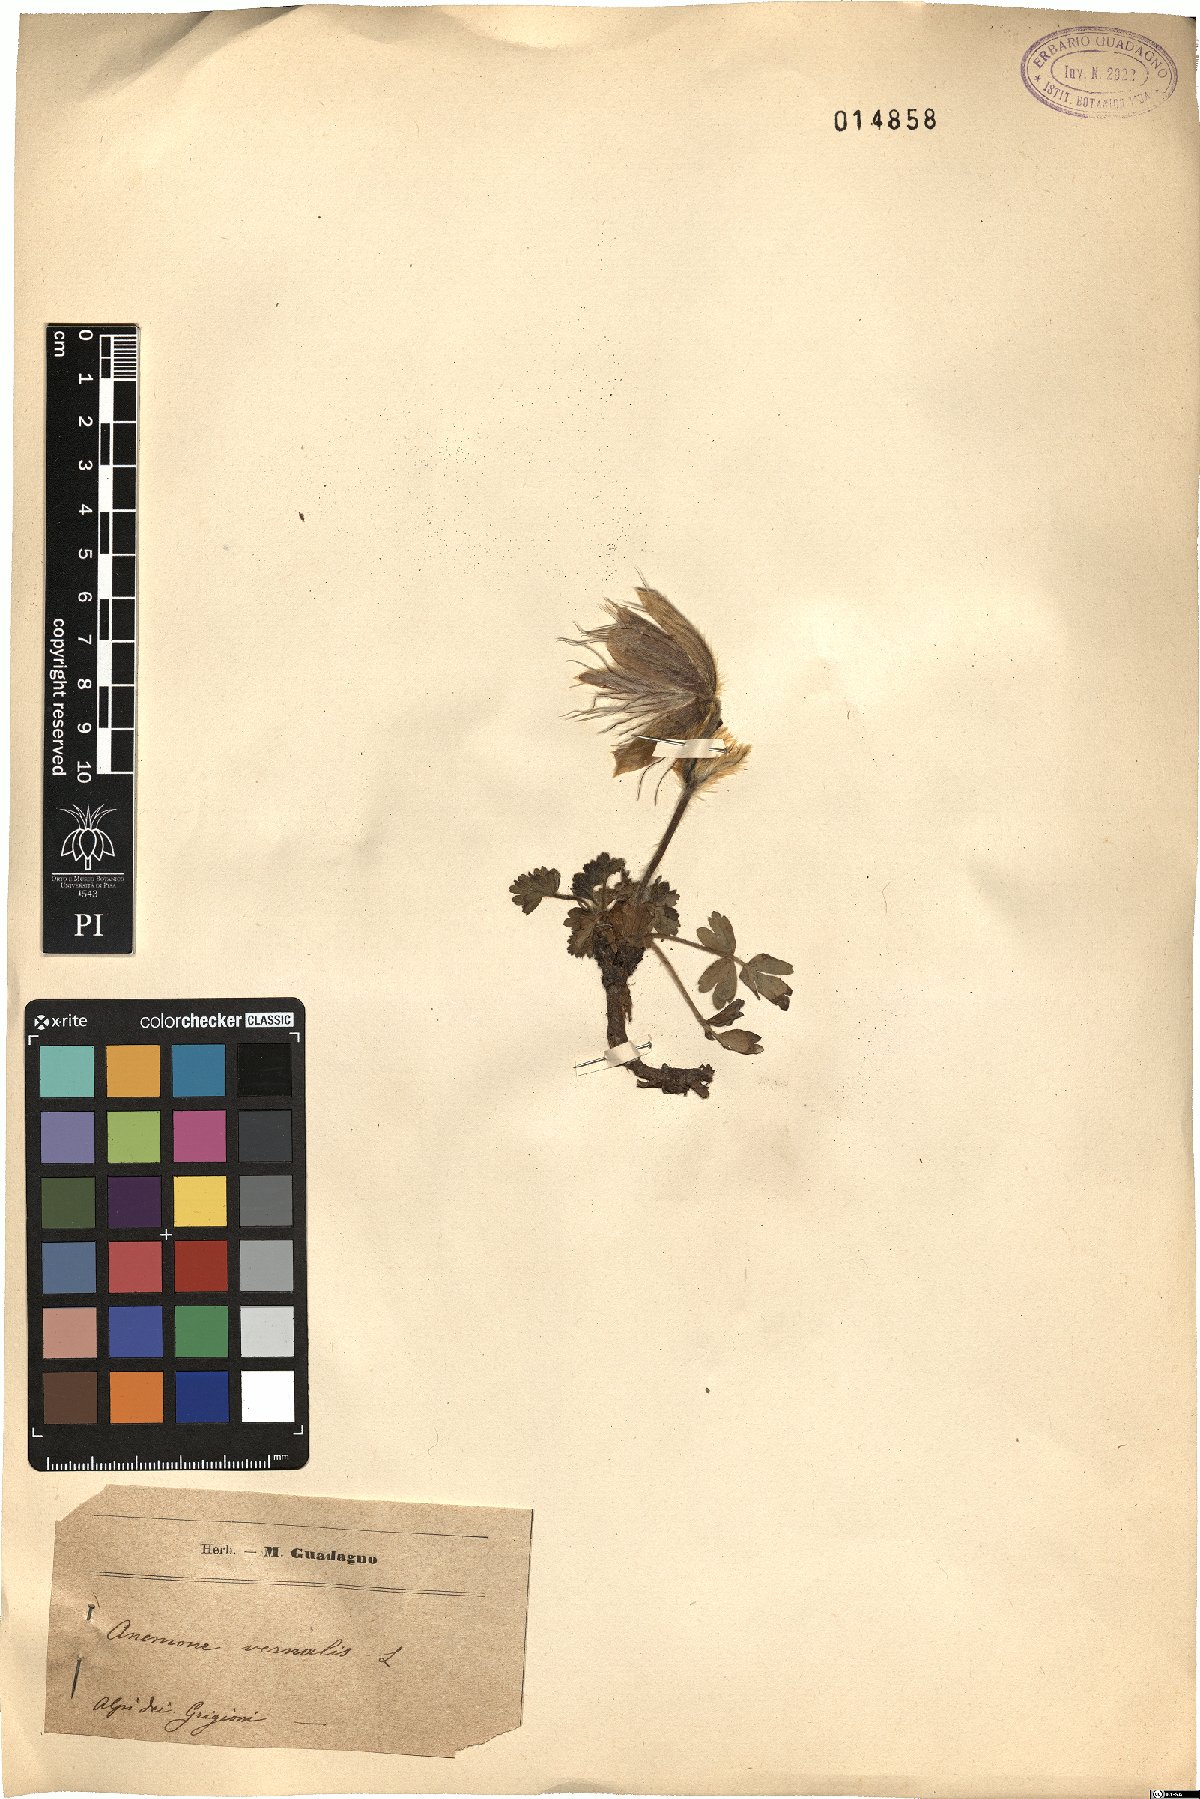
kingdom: Plantae
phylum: Tracheophyta
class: Magnoliopsida
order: Ranunculales
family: Ranunculaceae
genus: Pulsatilla
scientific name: Pulsatilla vernalis
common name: Spring pasque flower
